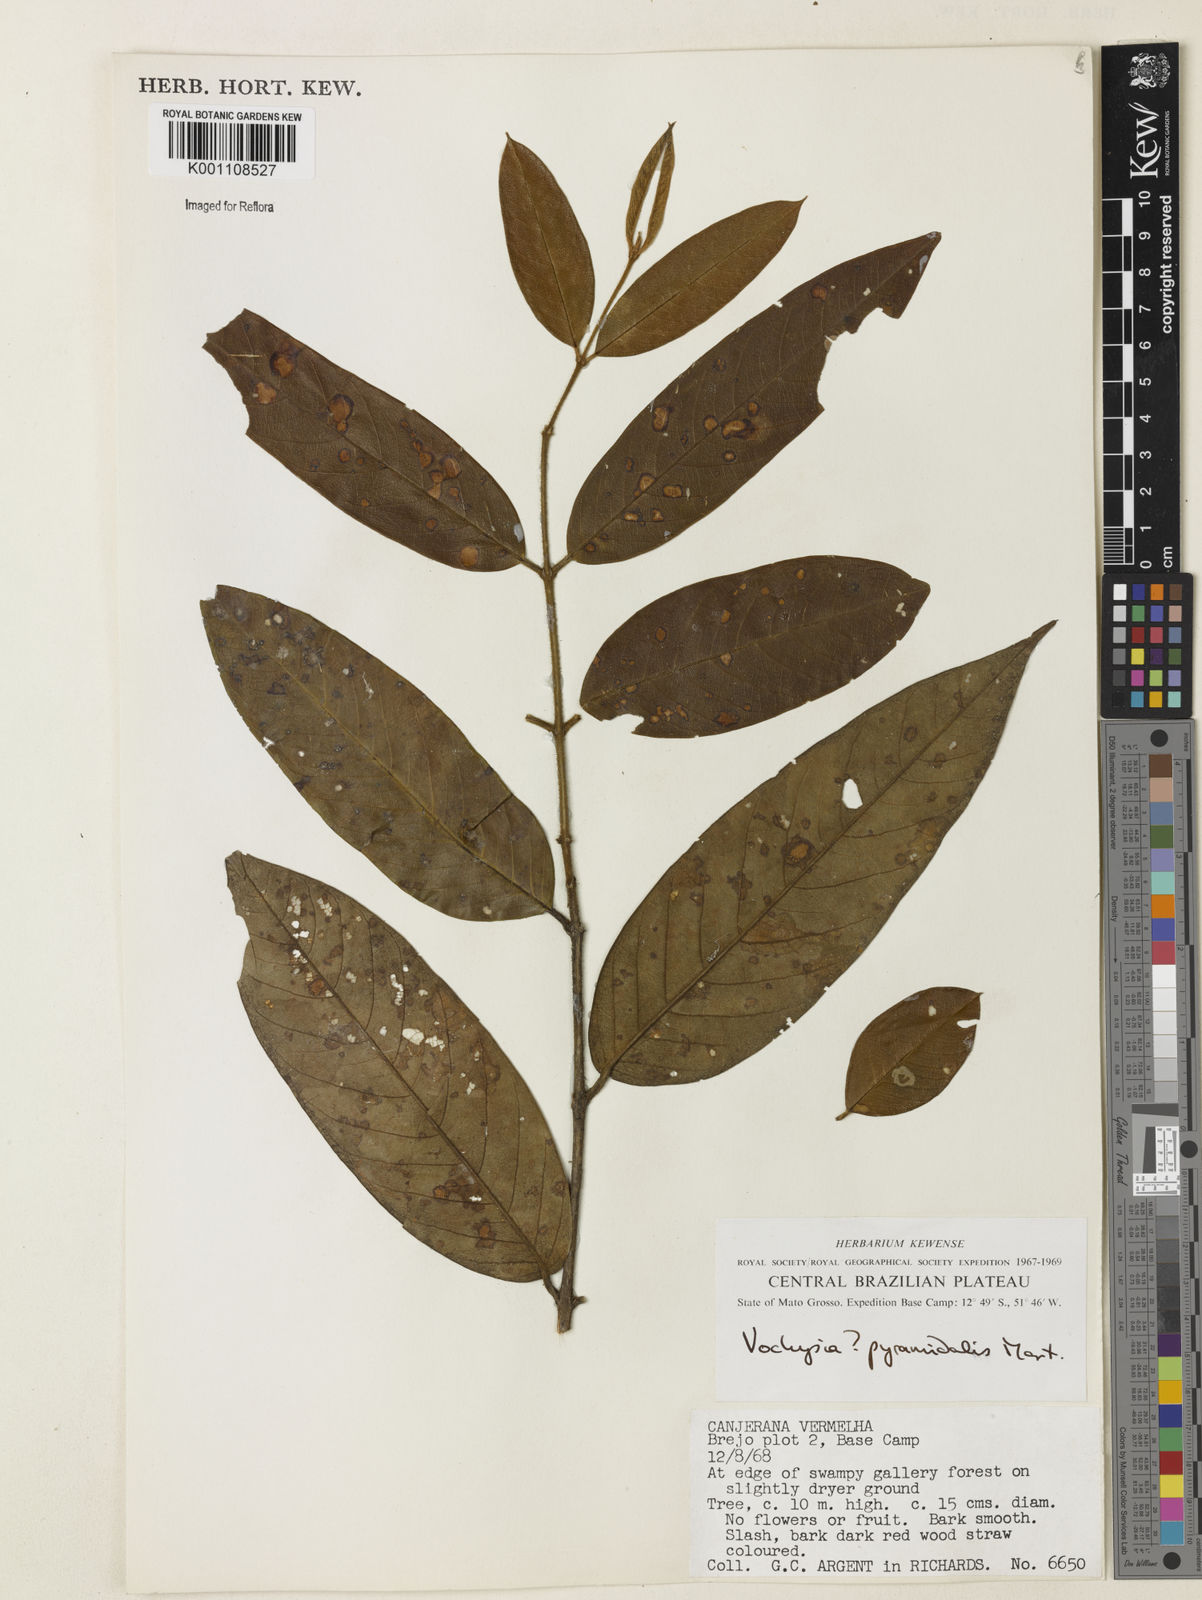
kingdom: Plantae
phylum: Tracheophyta
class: Magnoliopsida
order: Myrtales
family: Vochysiaceae
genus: Vochysia
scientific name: Vochysia pyramidalis
